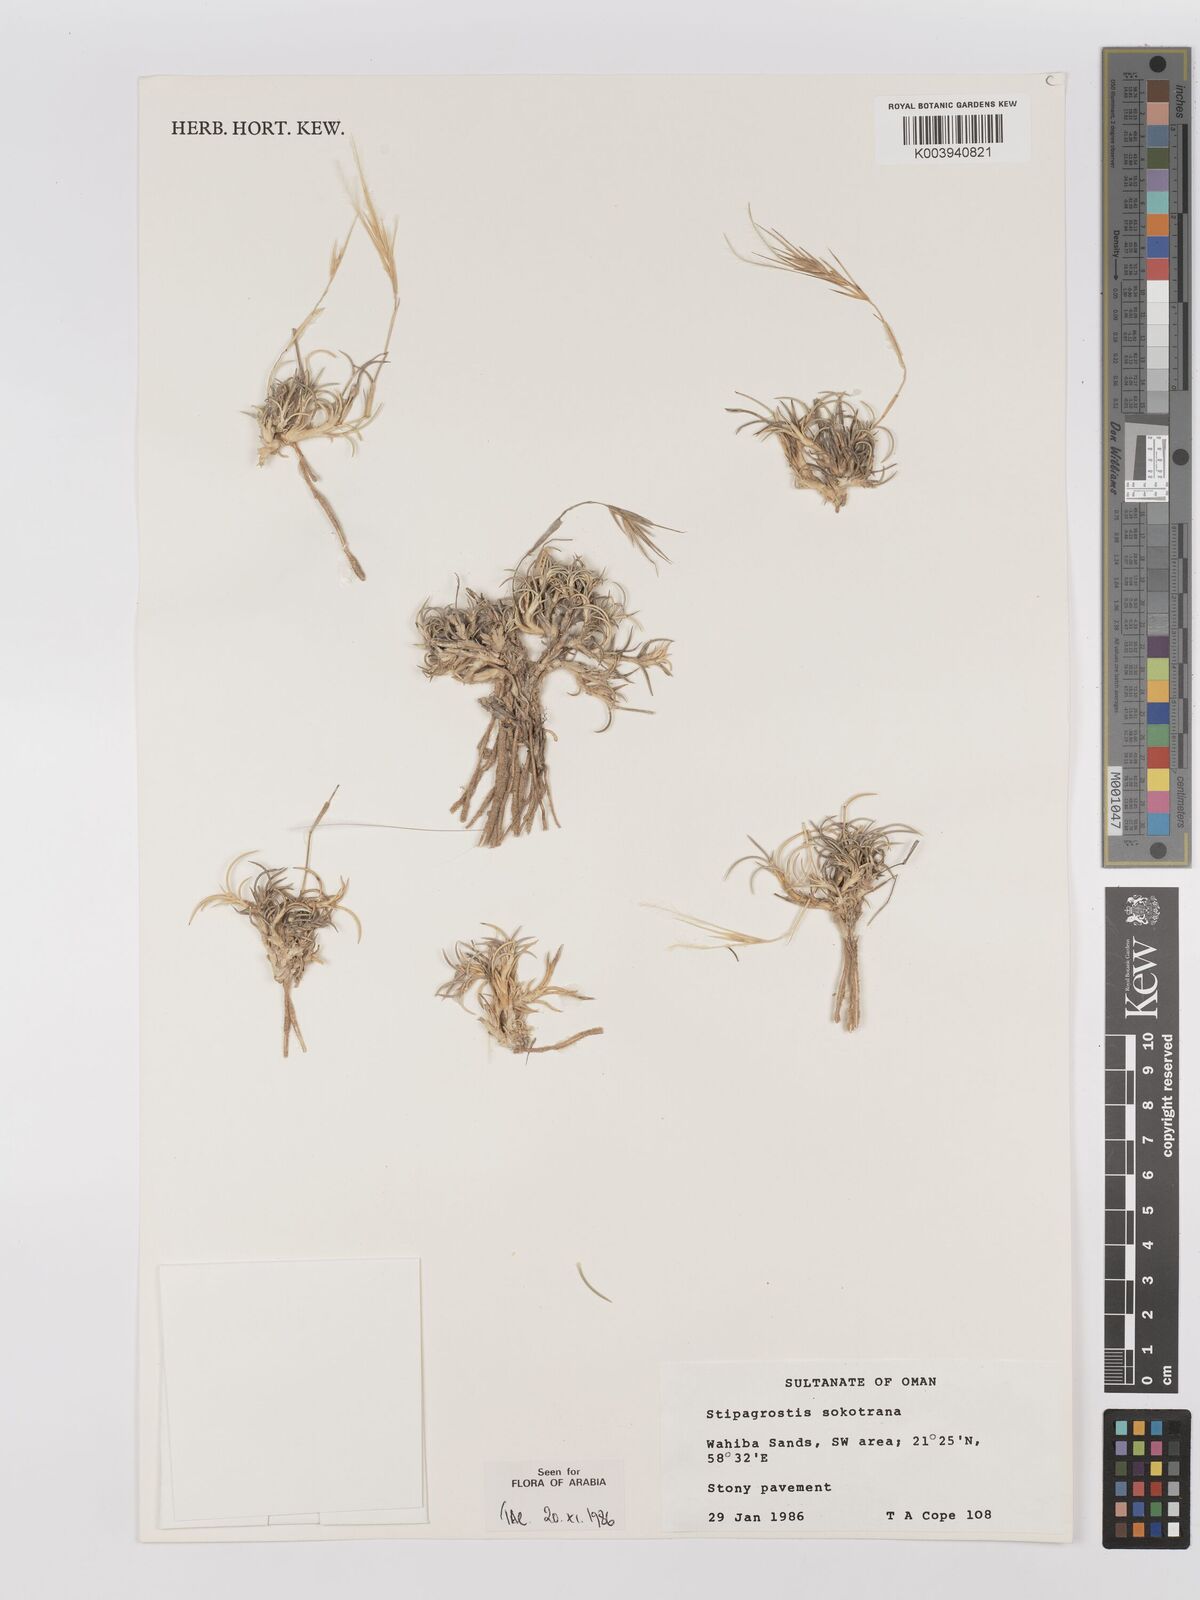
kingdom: Plantae
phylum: Tracheophyta
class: Liliopsida
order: Poales
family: Poaceae
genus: Stipagrostis
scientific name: Stipagrostis sokotrana
